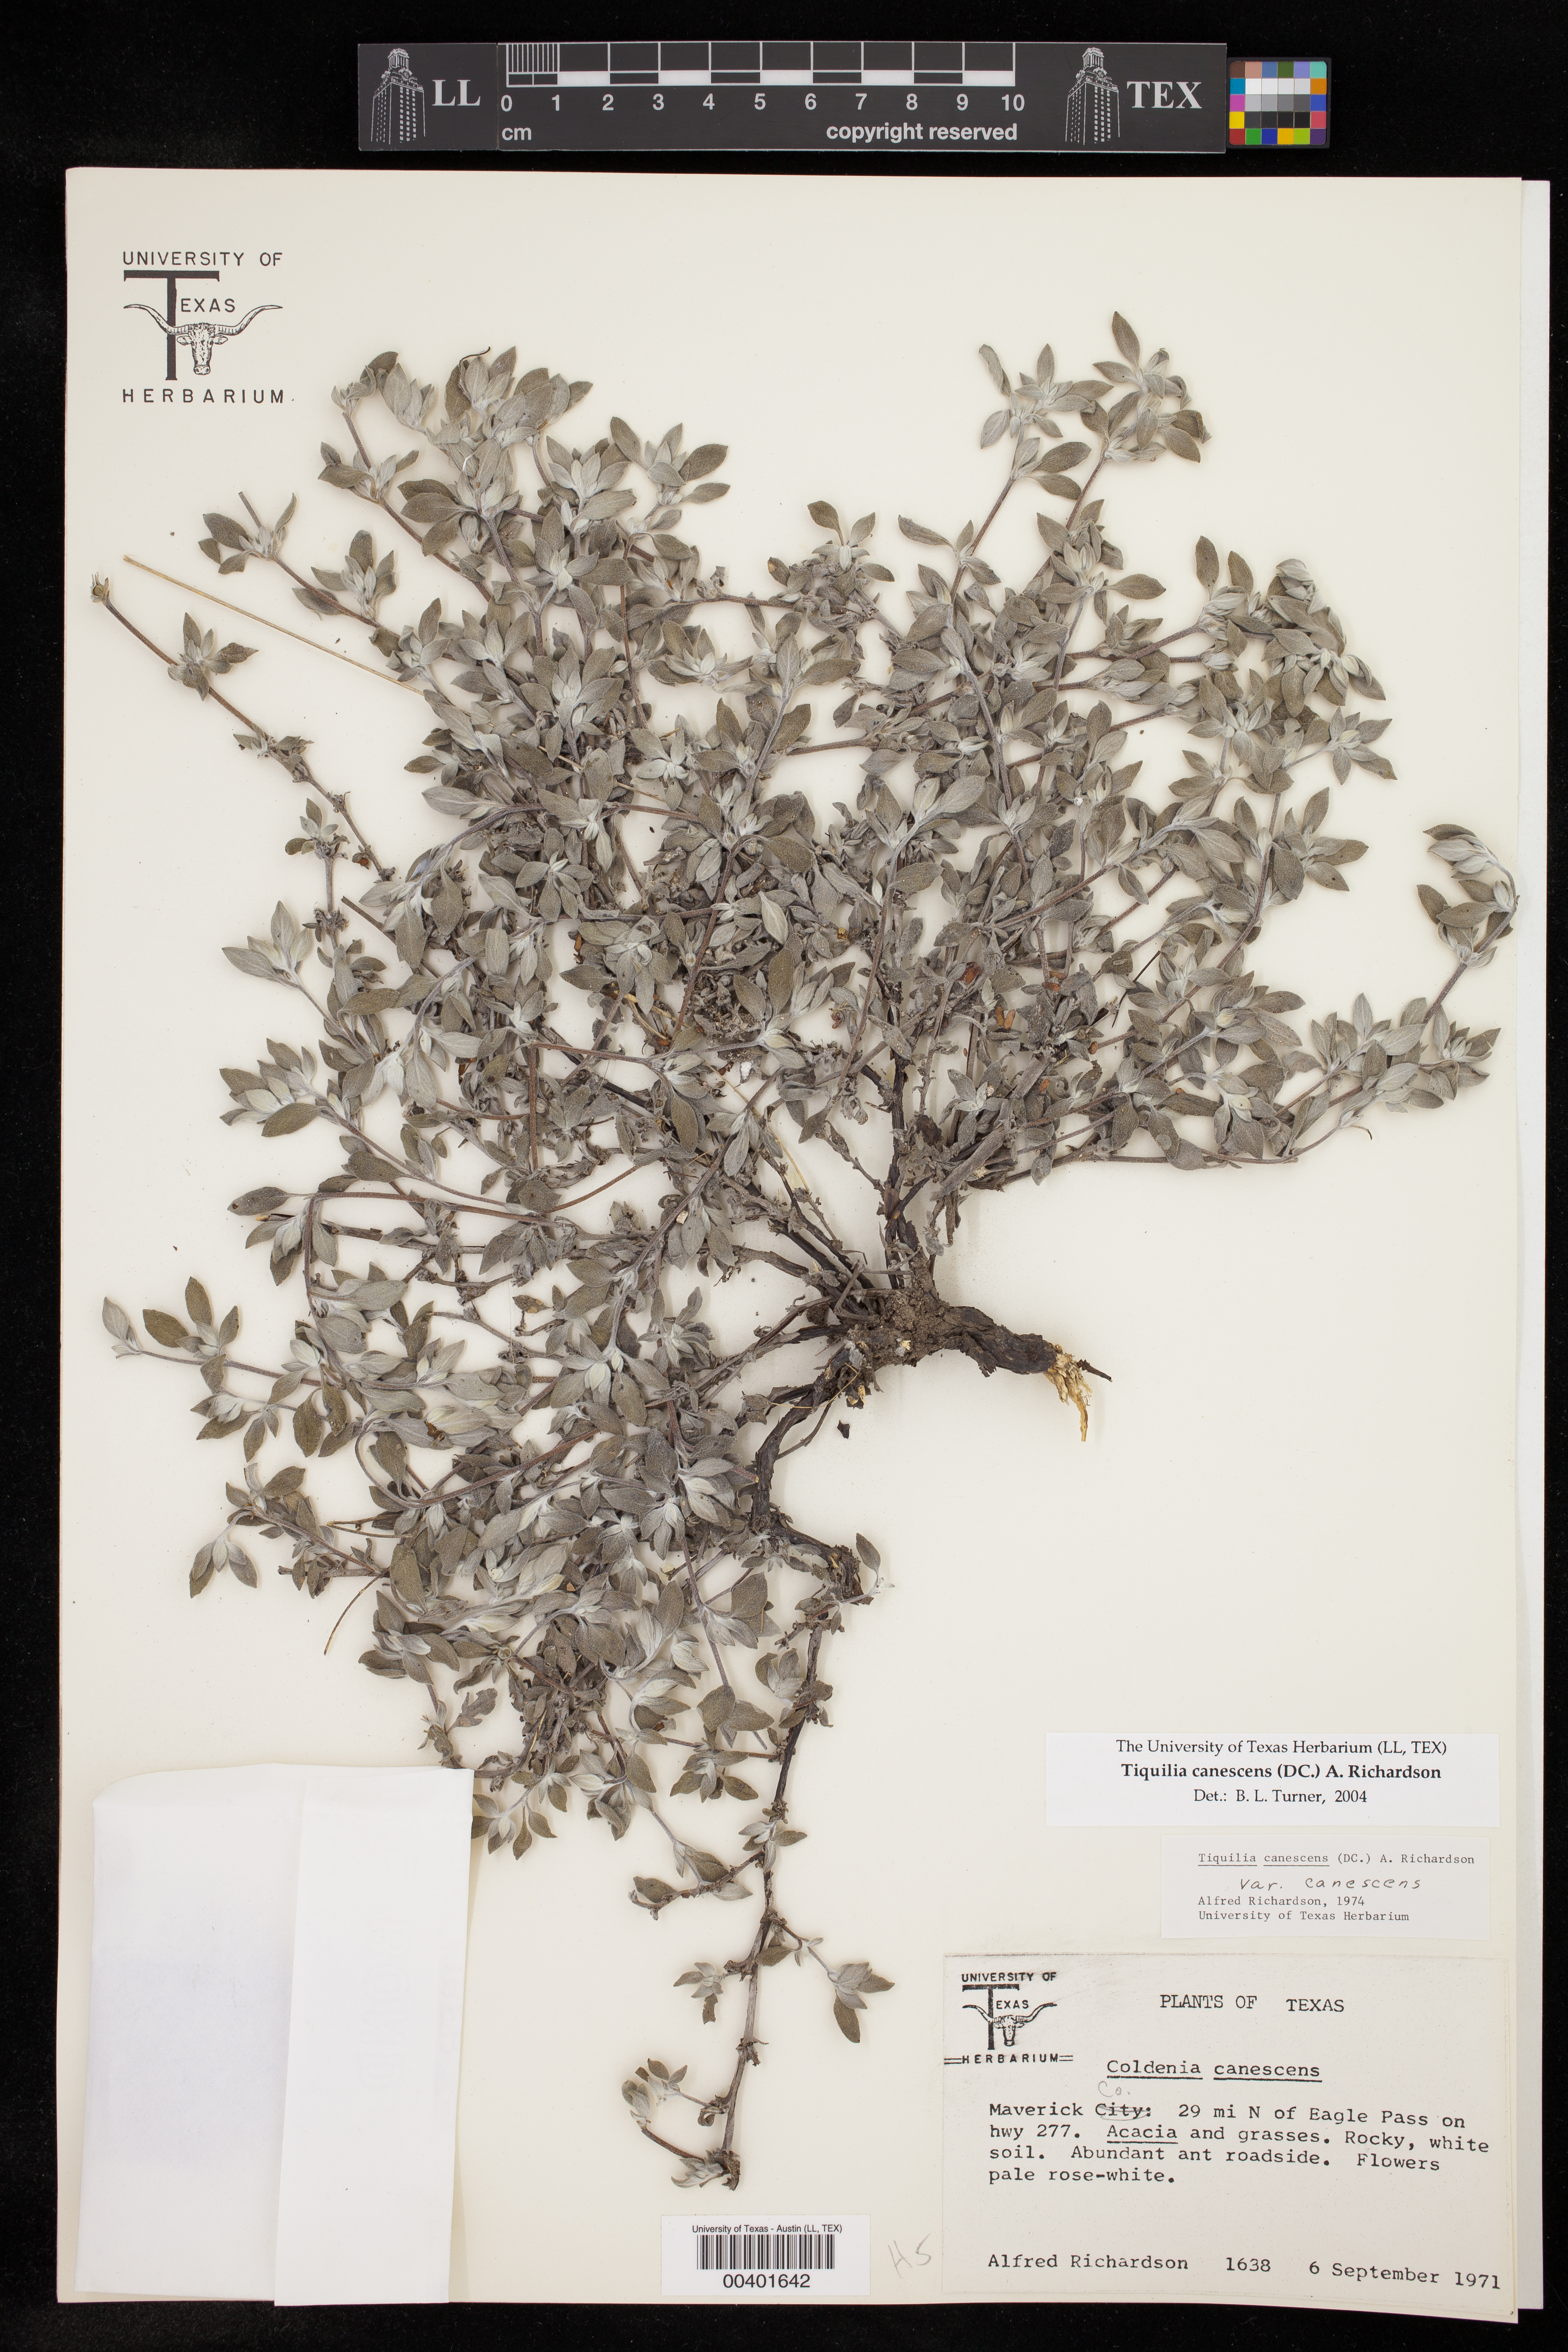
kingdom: Plantae
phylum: Tracheophyta
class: Magnoliopsida
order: Boraginales
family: Ehretiaceae
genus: Tiquilia
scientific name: Tiquilia canescens
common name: Hairy tiquilia
